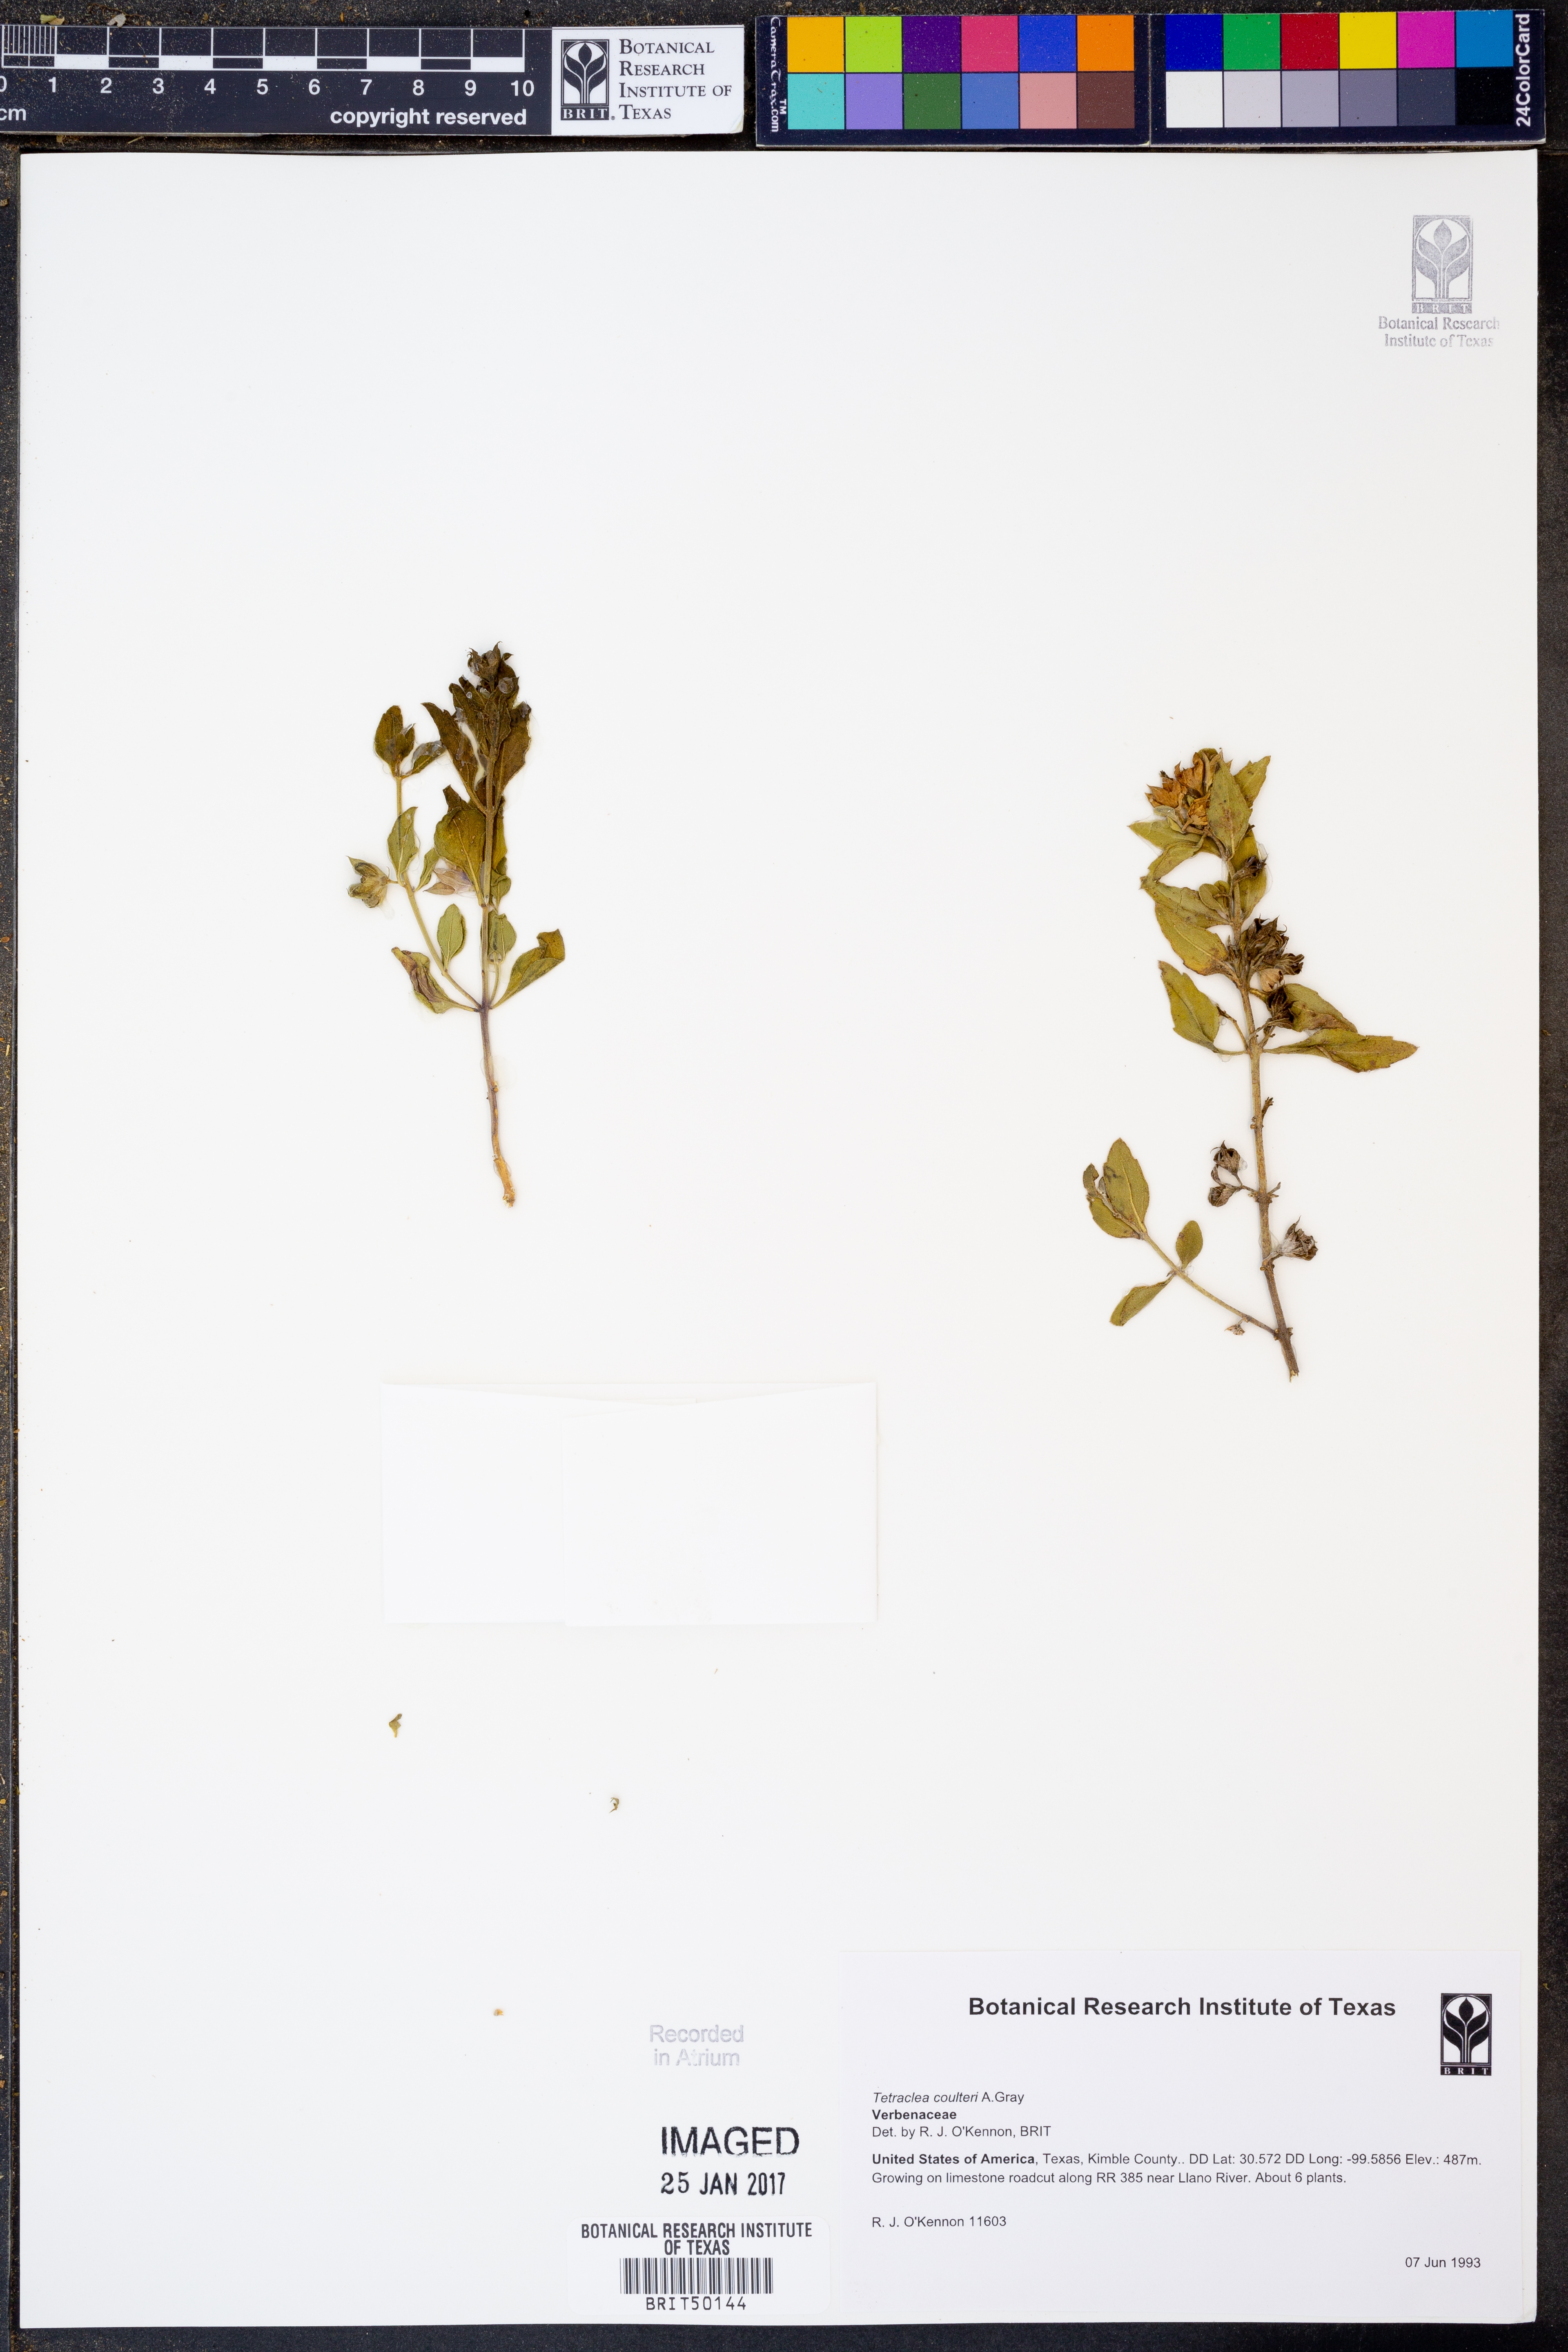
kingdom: Plantae
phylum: Tracheophyta
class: Magnoliopsida
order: Lamiales
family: Lamiaceae
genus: Tetraclea
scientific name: Tetraclea coulteri
